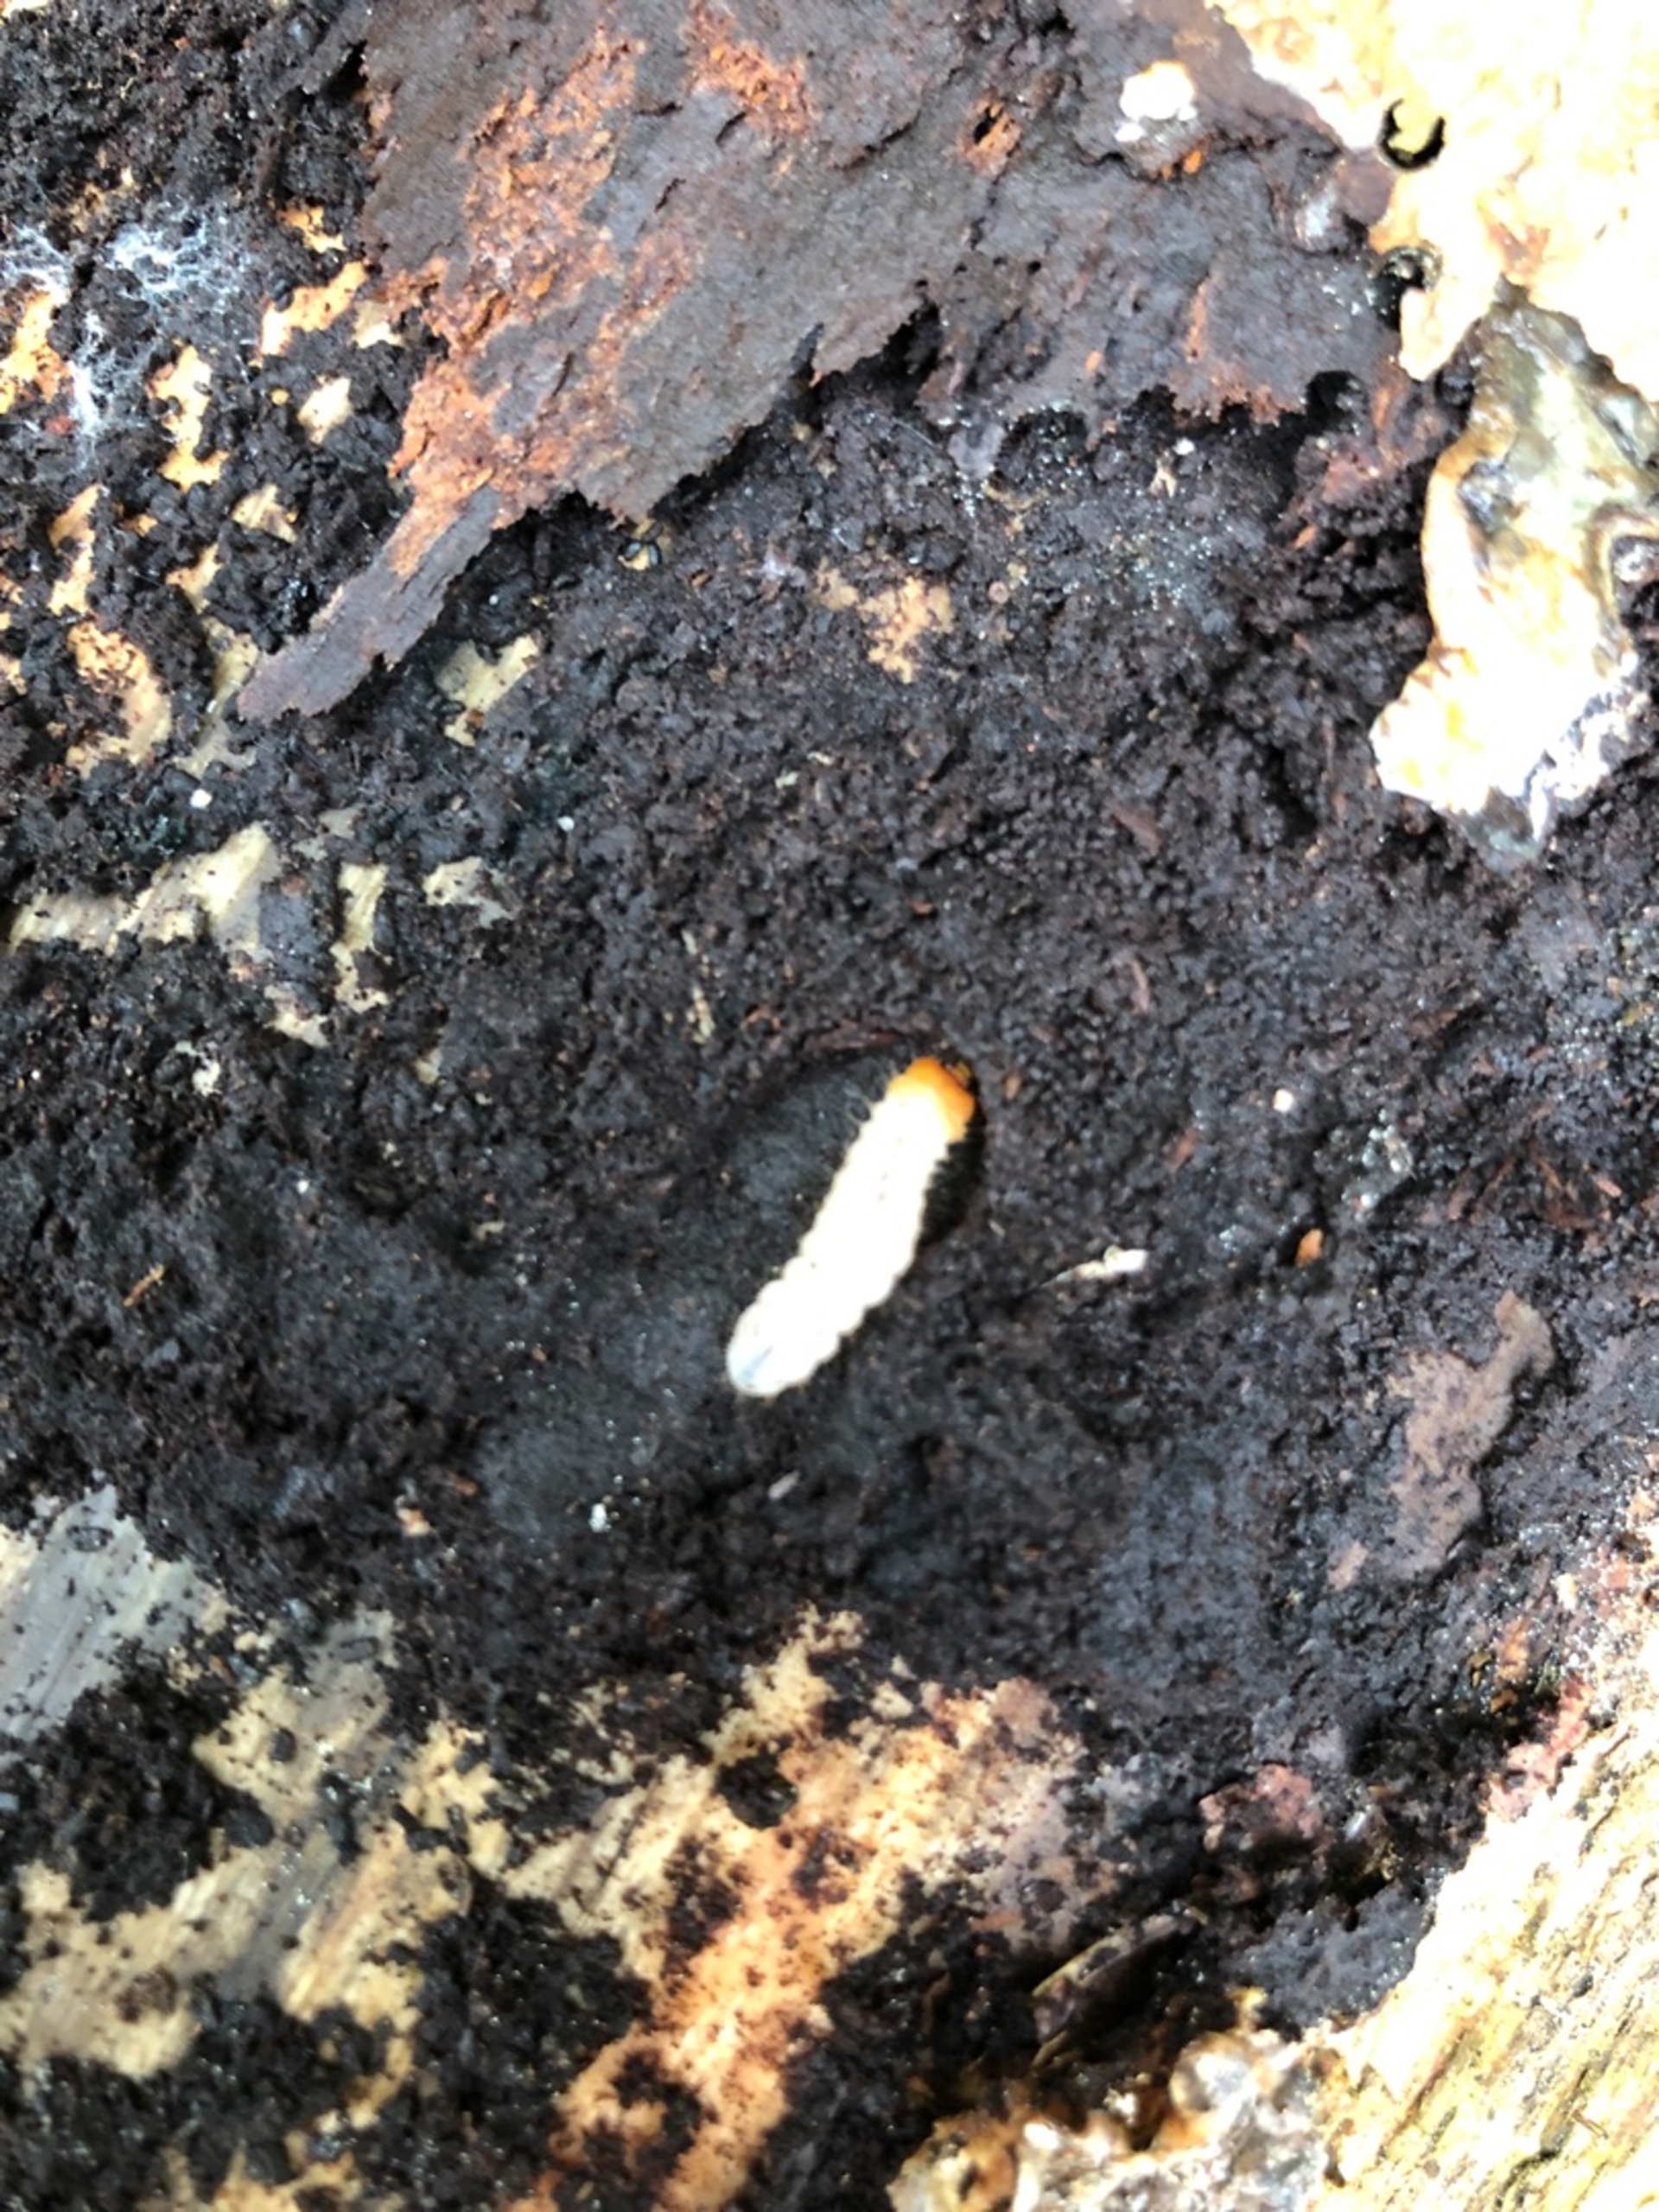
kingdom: Animalia
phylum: Arthropoda
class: Insecta
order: Coleoptera
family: Cerambycidae
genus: Rhagium
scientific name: Rhagium
